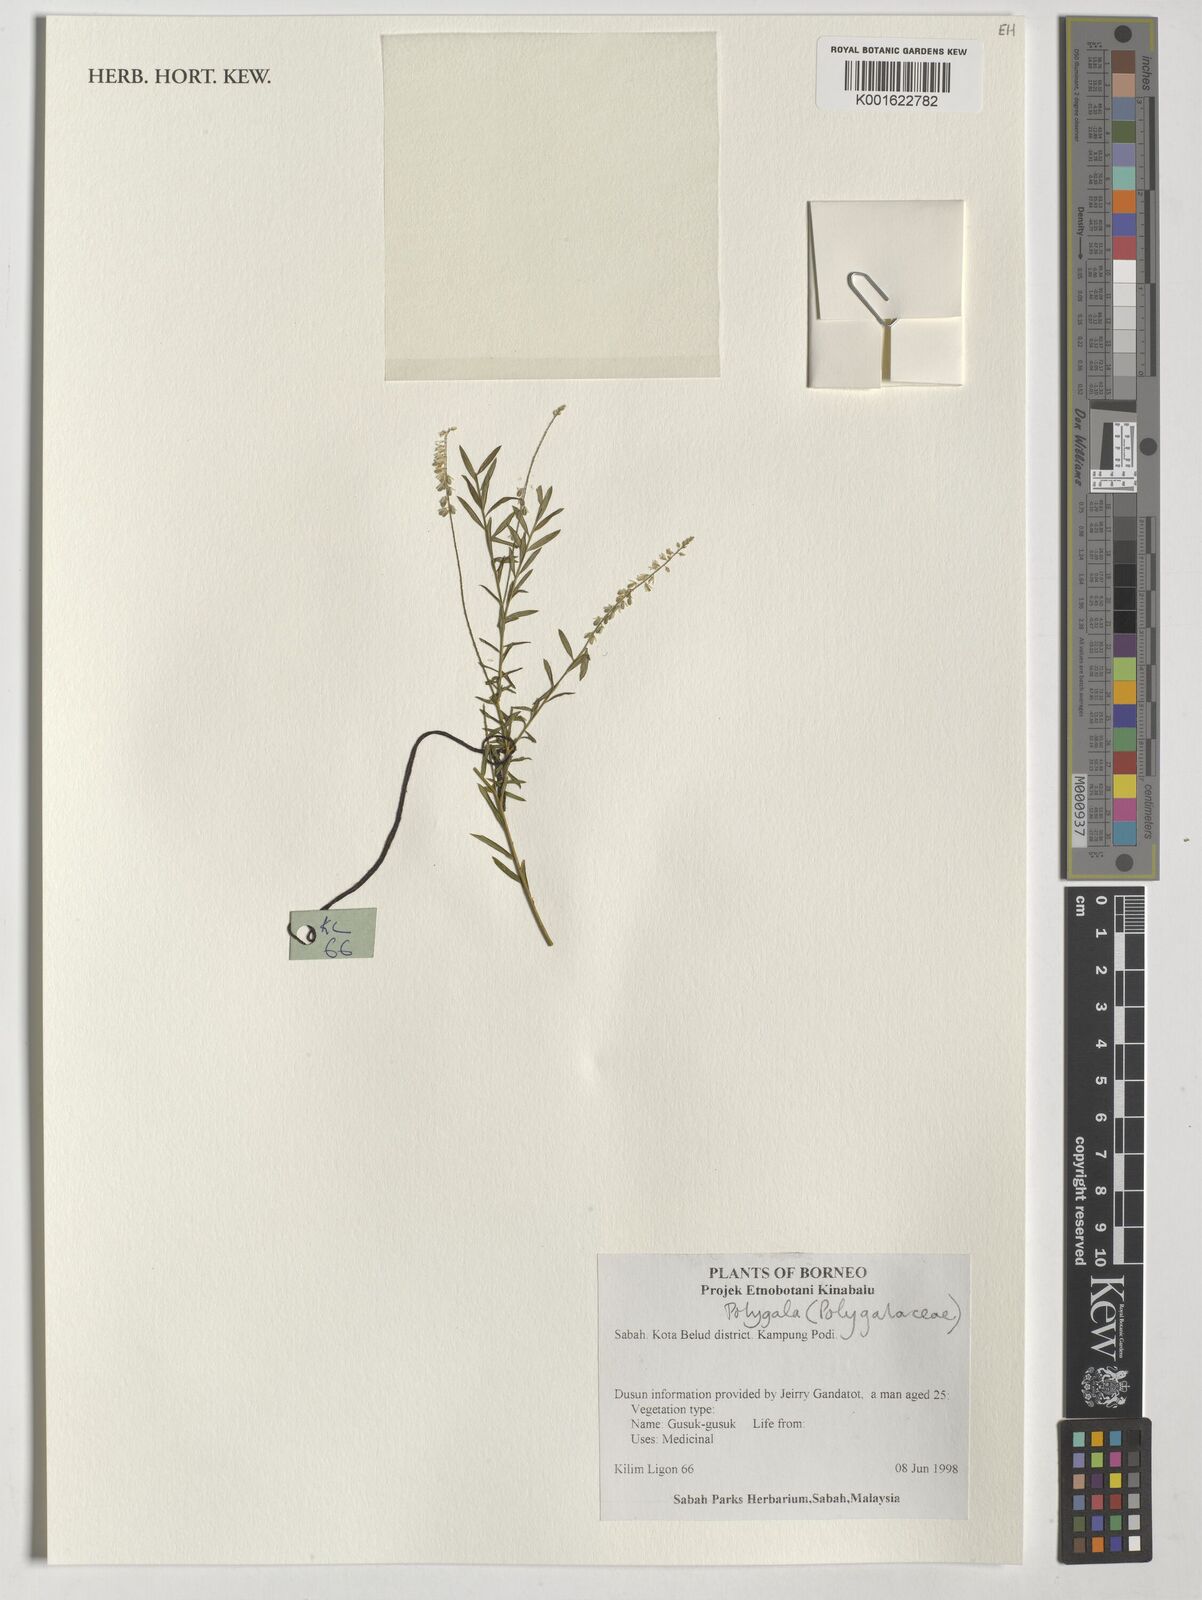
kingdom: Plantae
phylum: Tracheophyta
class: Magnoliopsida
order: Fabales
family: Polygalaceae
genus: Polygala
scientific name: Polygala
